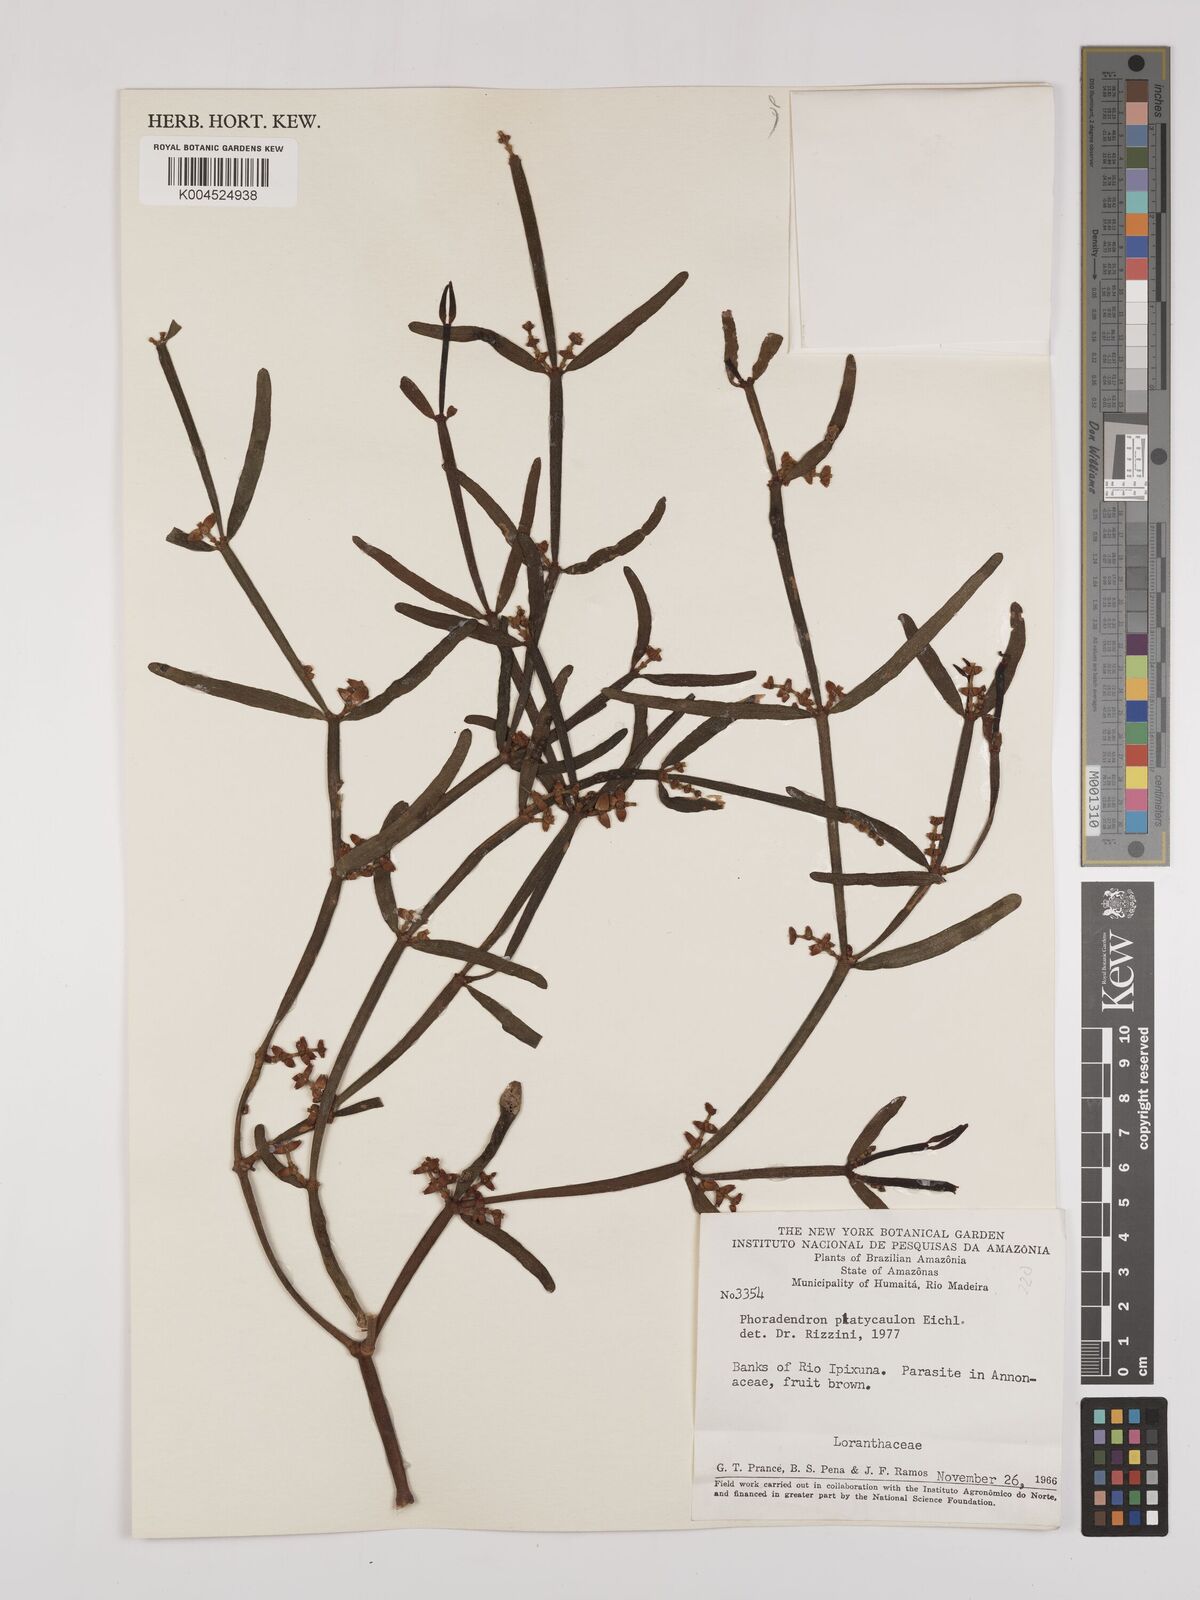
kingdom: Plantae
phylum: Tracheophyta
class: Magnoliopsida
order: Santalales
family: Viscaceae
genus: Phoradendron
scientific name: Phoradendron planiphyllum
